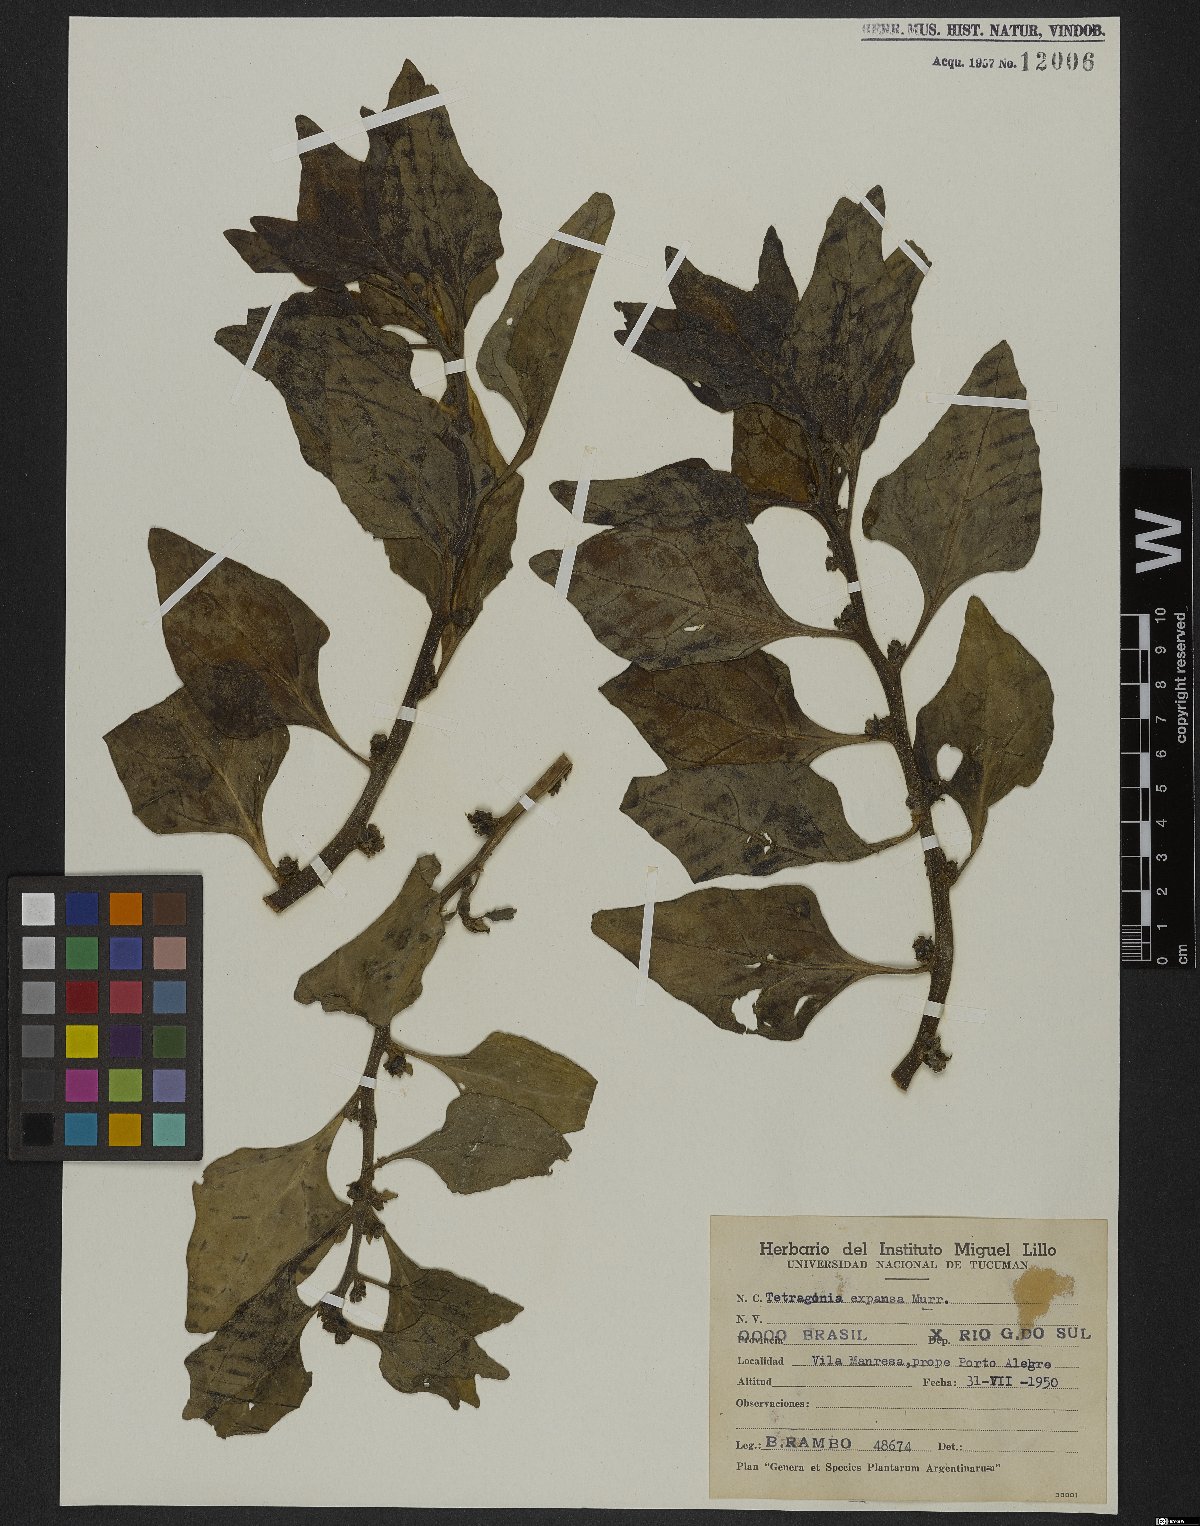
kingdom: Plantae
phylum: Tracheophyta
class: Magnoliopsida
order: Caryophyllales
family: Aizoaceae
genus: Tetragonia
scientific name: Tetragonia tetragonoides
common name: New zealand-spinach
